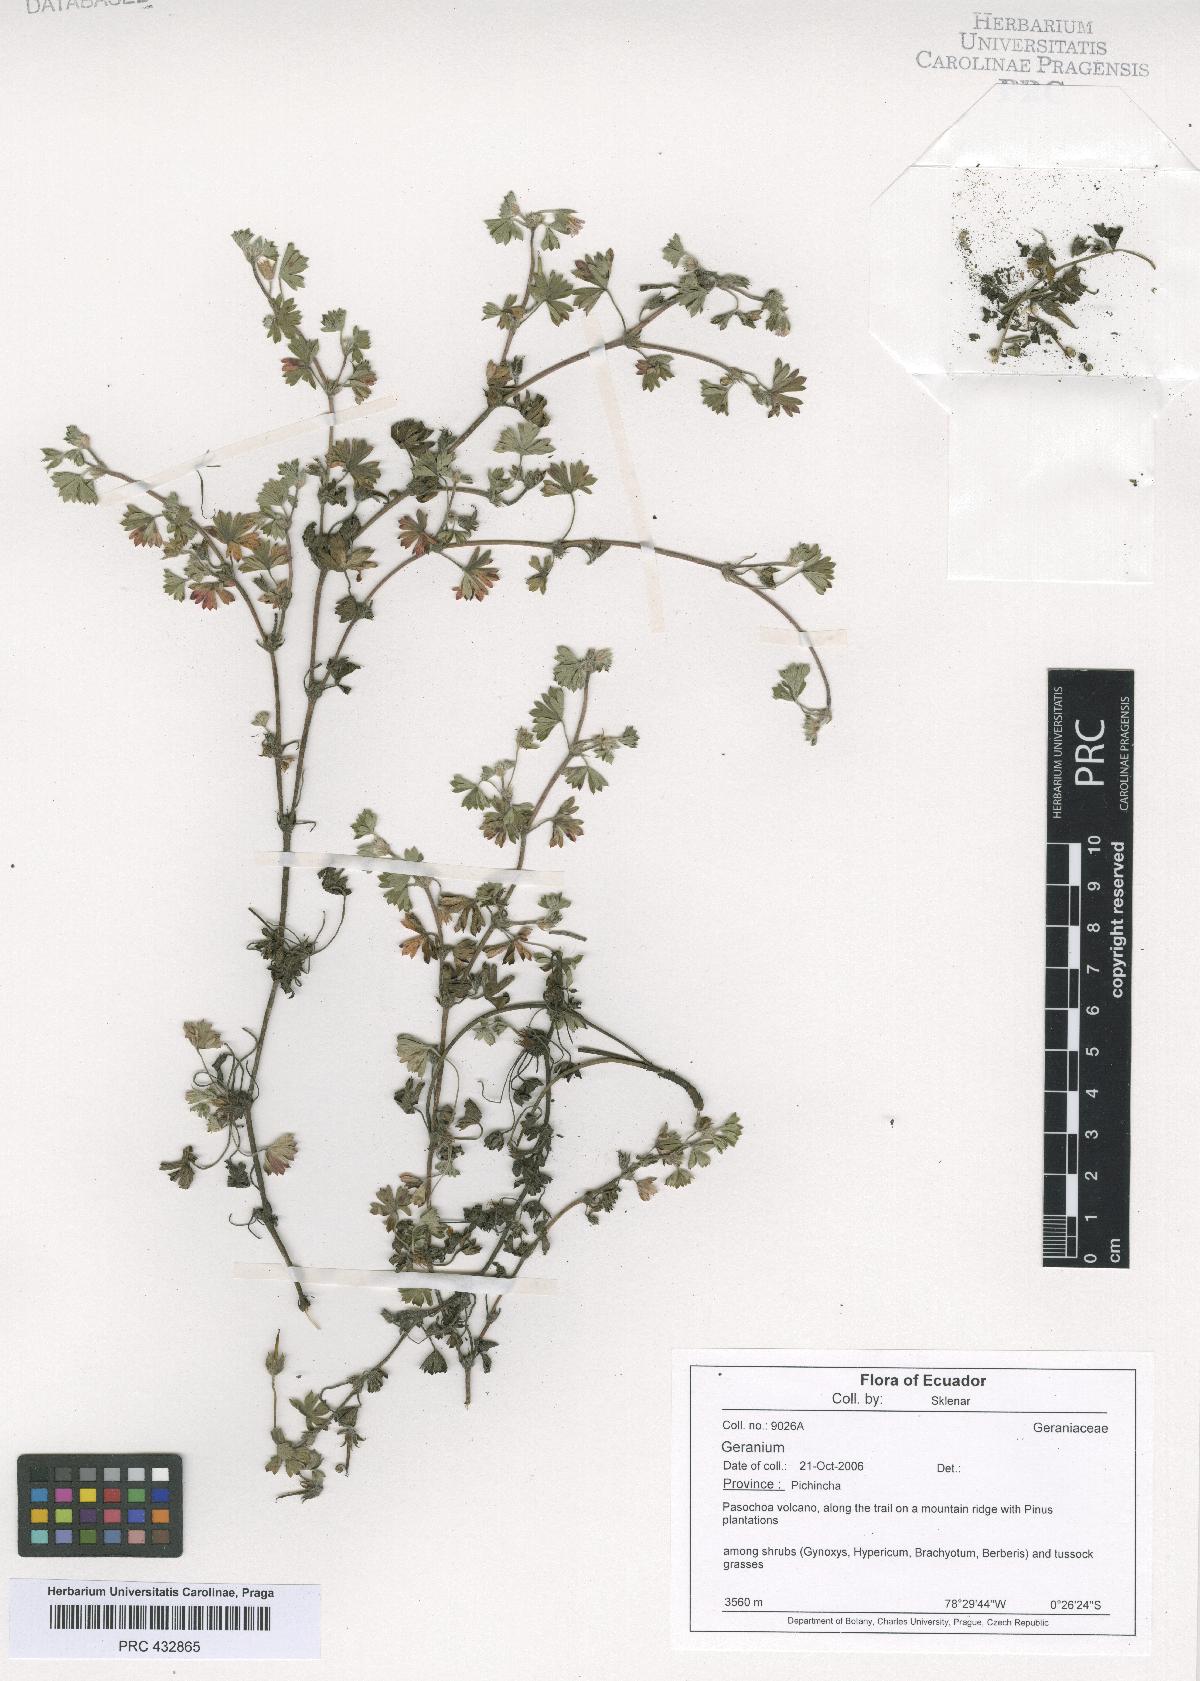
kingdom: Plantae
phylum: Tracheophyta
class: Magnoliopsida
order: Geraniales
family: Geraniaceae
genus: Geranium
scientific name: Geranium diffusum
